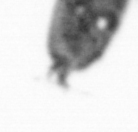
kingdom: Animalia
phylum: Arthropoda
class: Maxillopoda
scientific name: Maxillopoda
